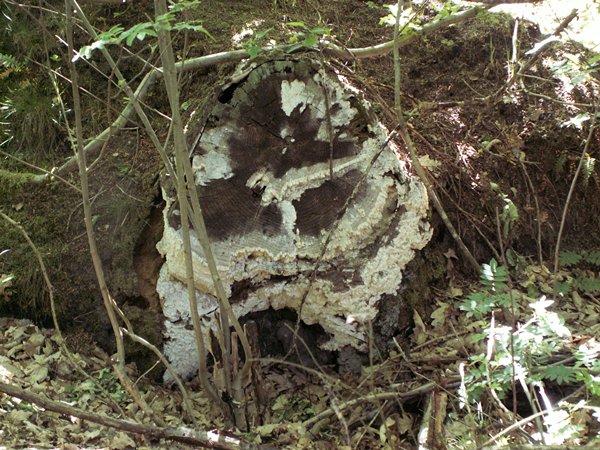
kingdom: Fungi
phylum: Basidiomycota
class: Agaricomycetes
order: Polyporales
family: Fomitopsidaceae
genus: Daedalea
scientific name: Daedalea xantha
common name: gul sejporesvamp
